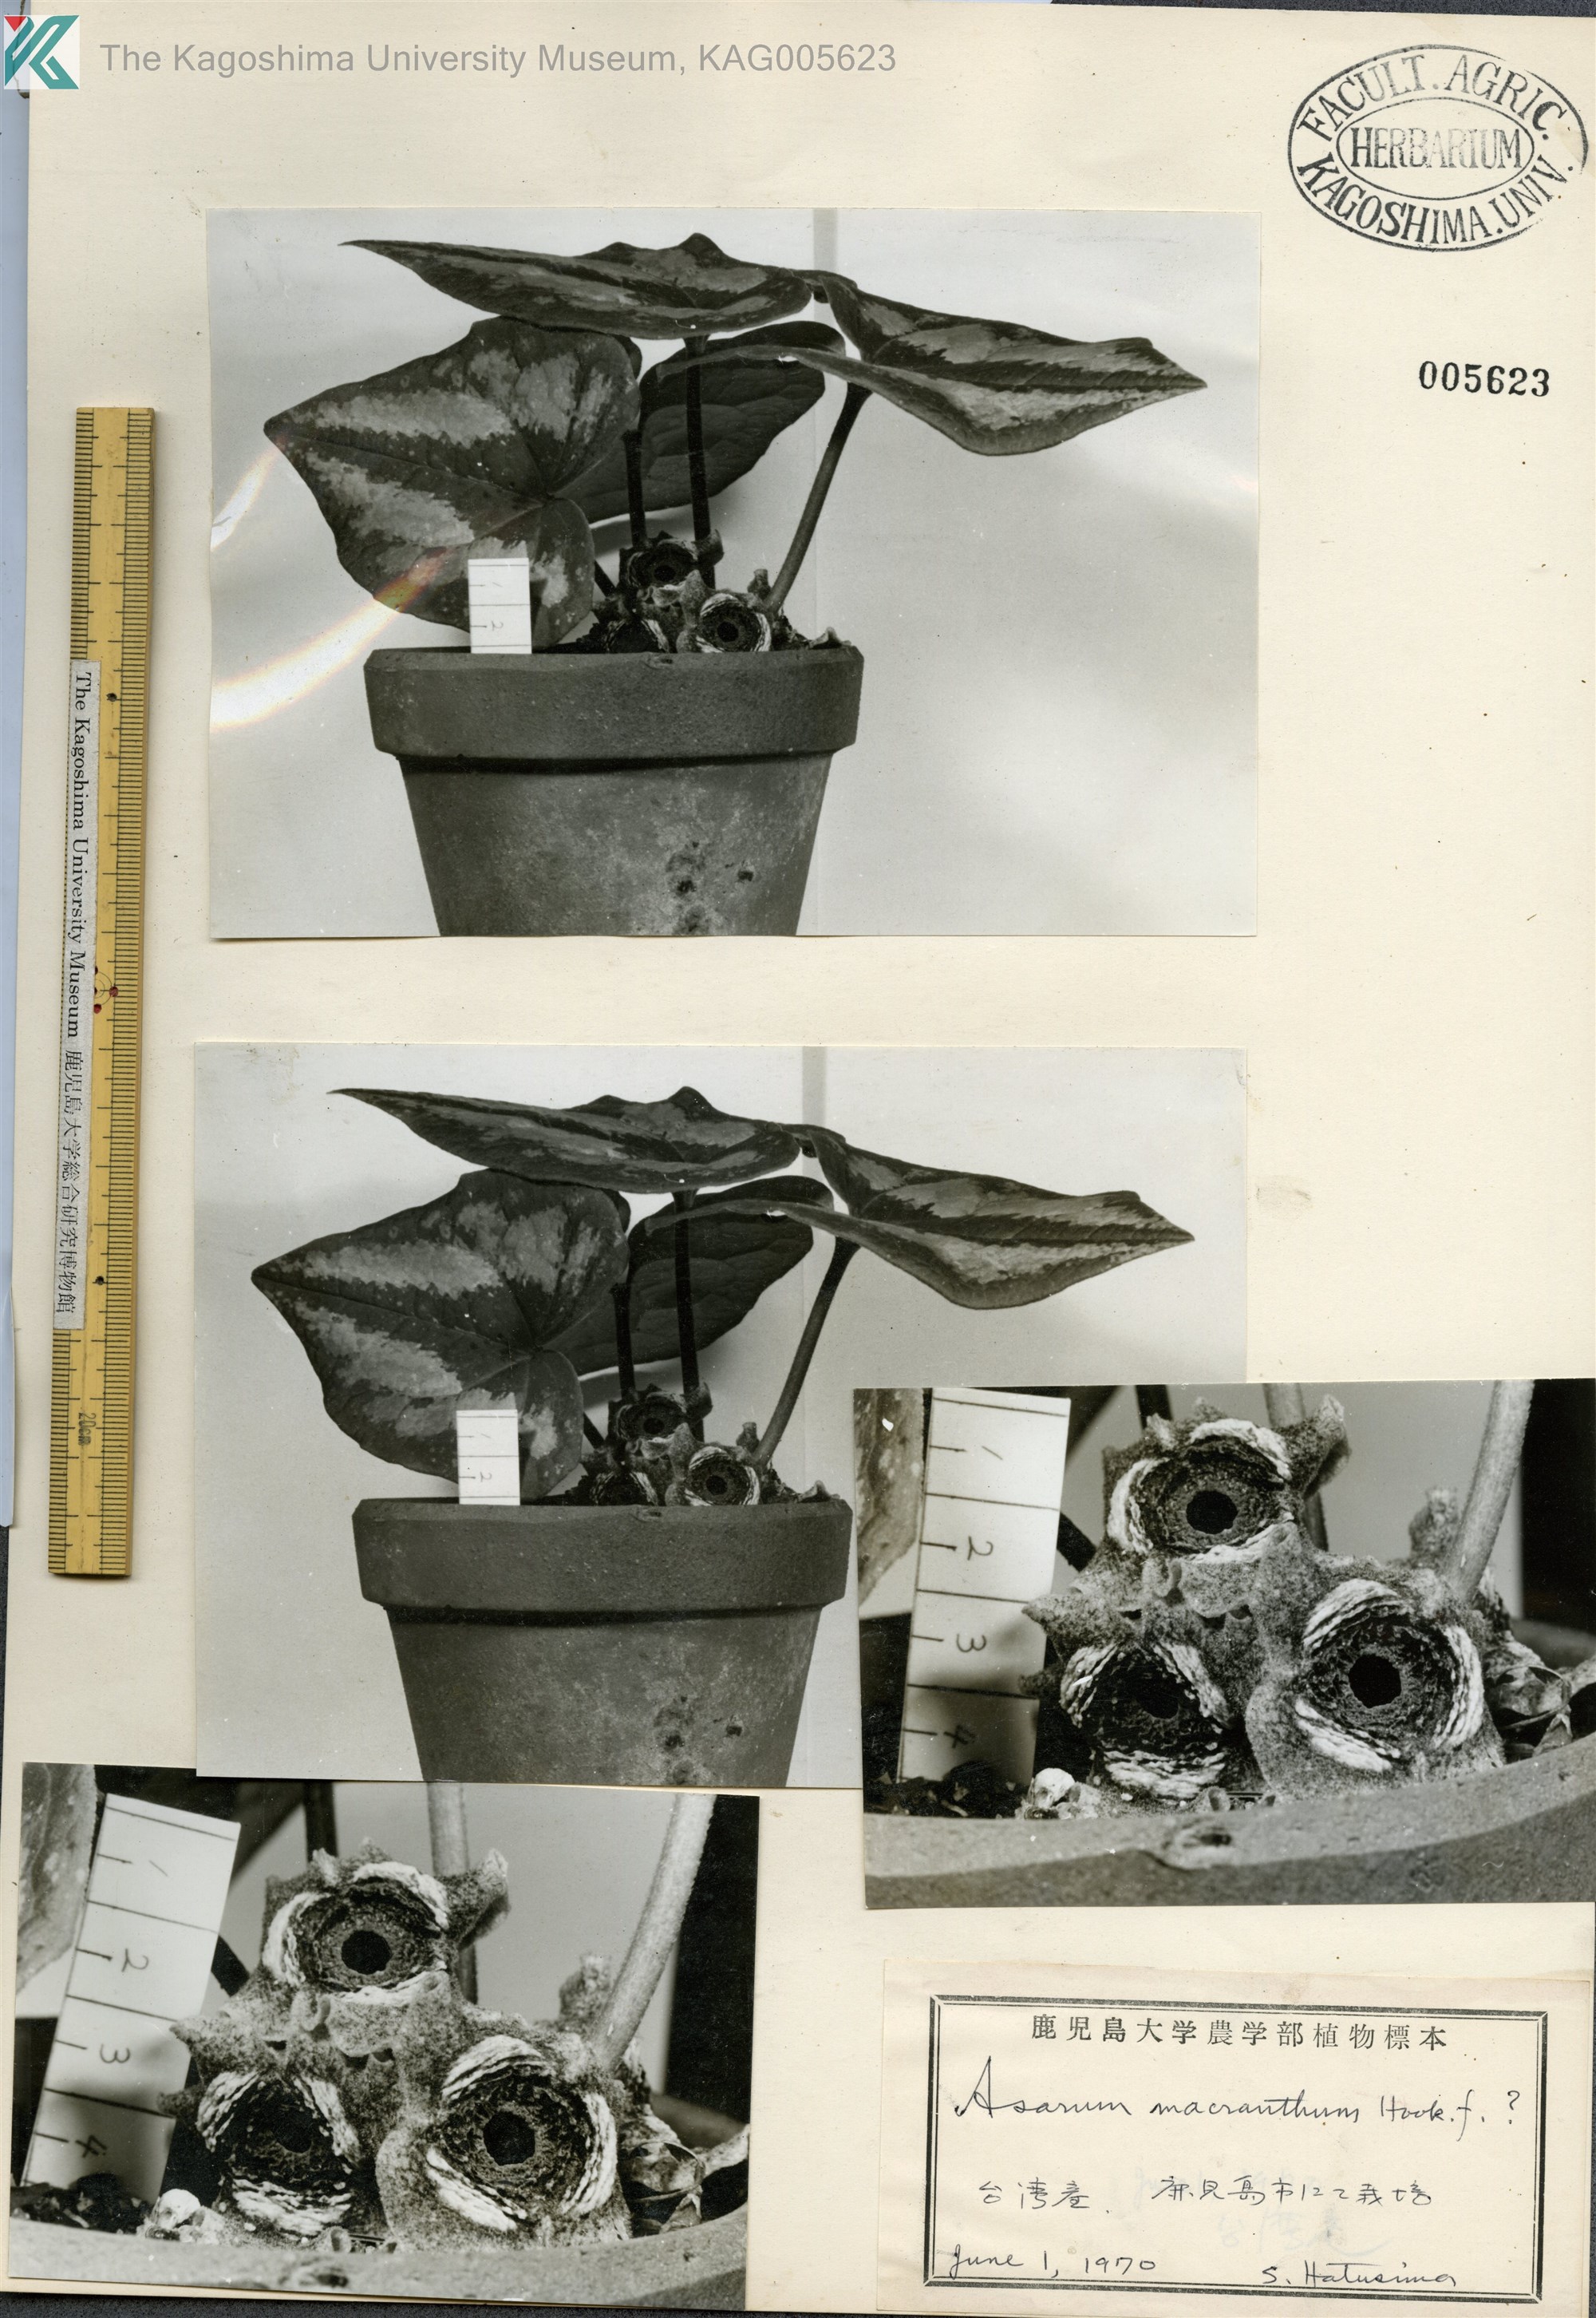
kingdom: Plantae
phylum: Tracheophyta
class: Magnoliopsida
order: Piperales
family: Aristolochiaceae
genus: Asarum
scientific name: Asarum macranthum
